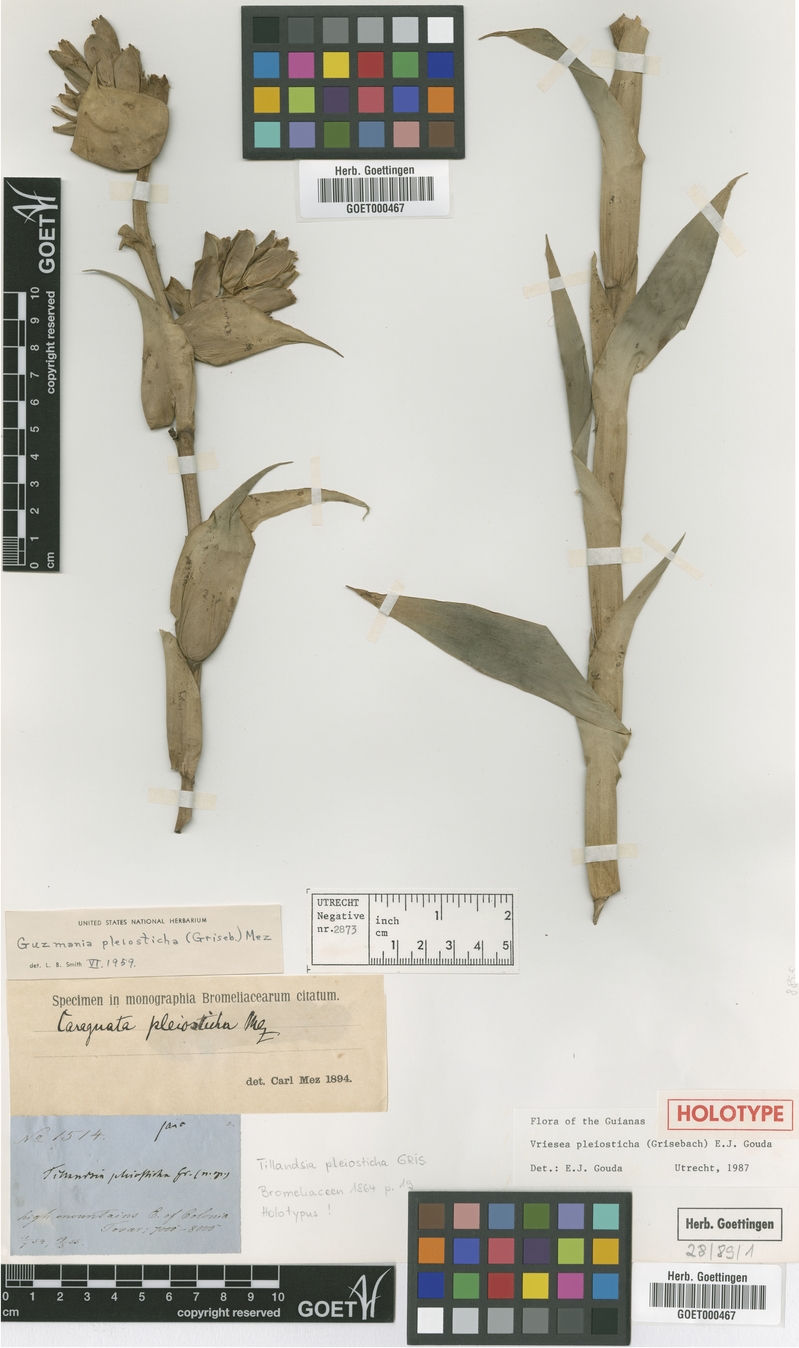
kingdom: Plantae
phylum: Tracheophyta
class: Liliopsida
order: Poales
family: Bromeliaceae
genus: Vriesea
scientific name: Vriesea pleiosticha
